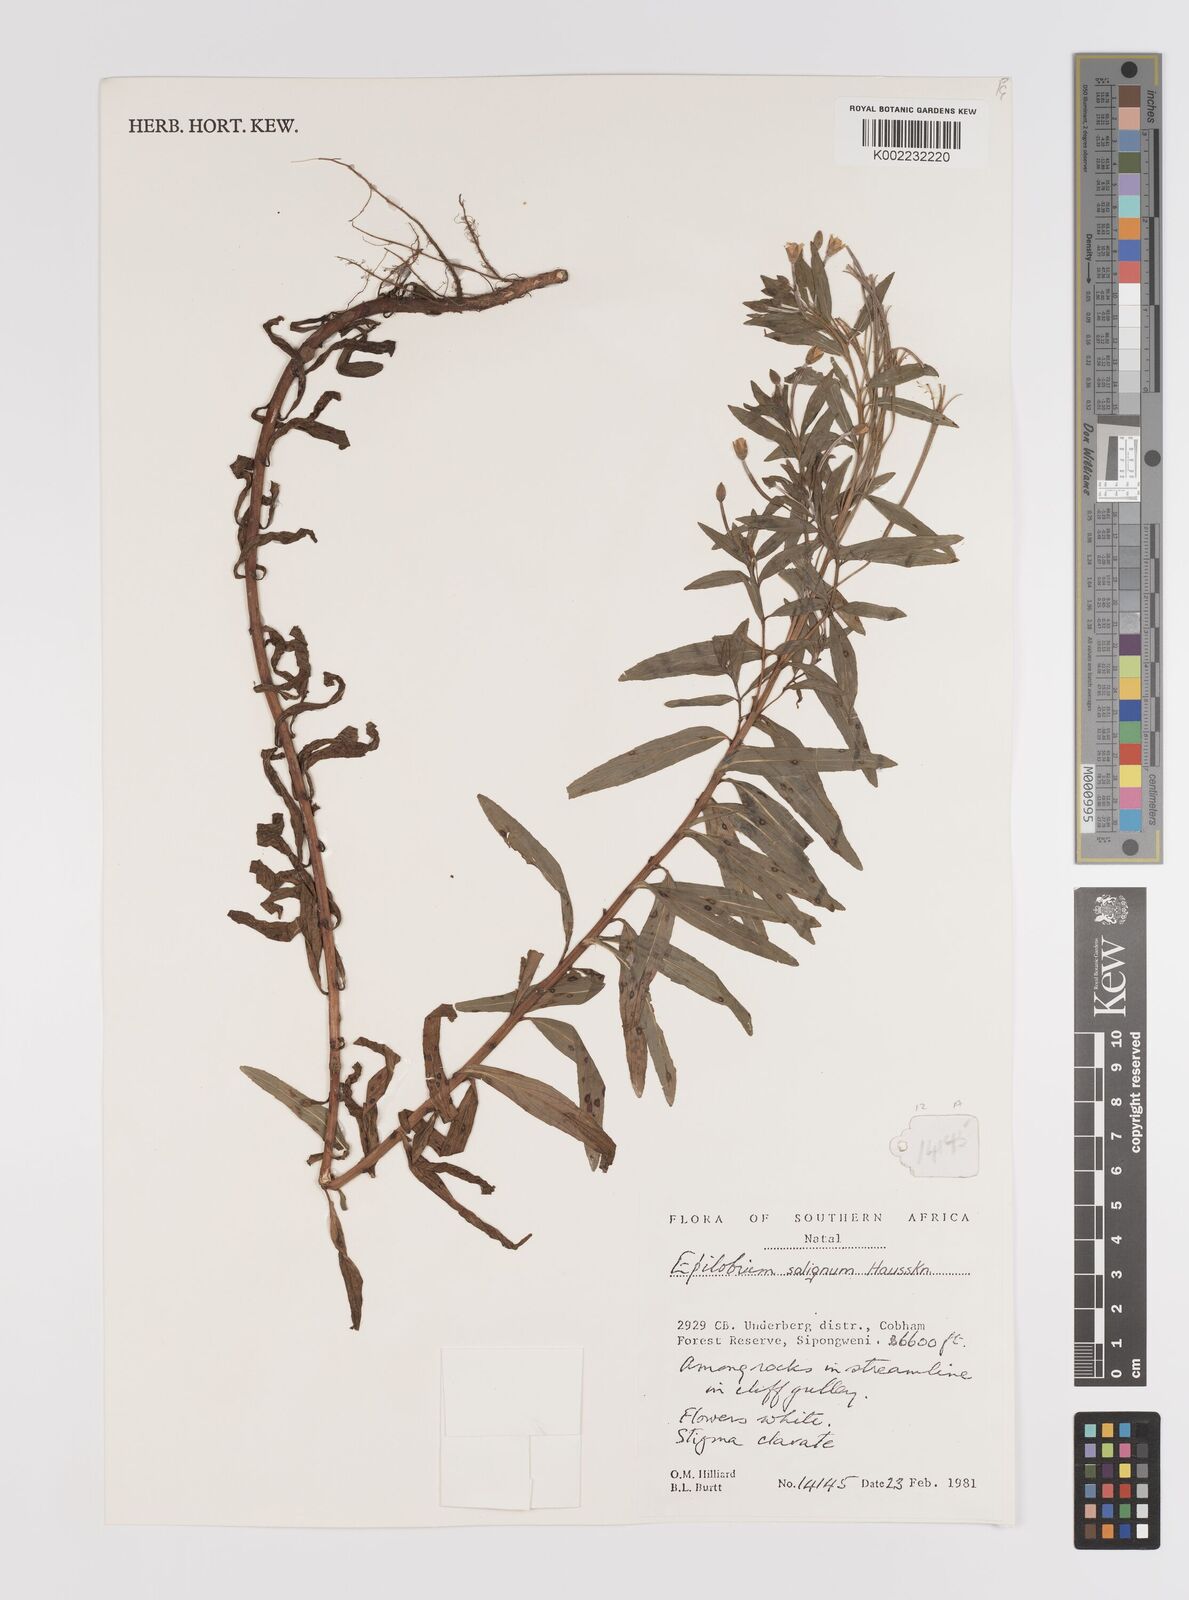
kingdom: Plantae
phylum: Tracheophyta
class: Magnoliopsida
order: Myrtales
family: Onagraceae
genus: Epilobium
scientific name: Epilobium salignum
